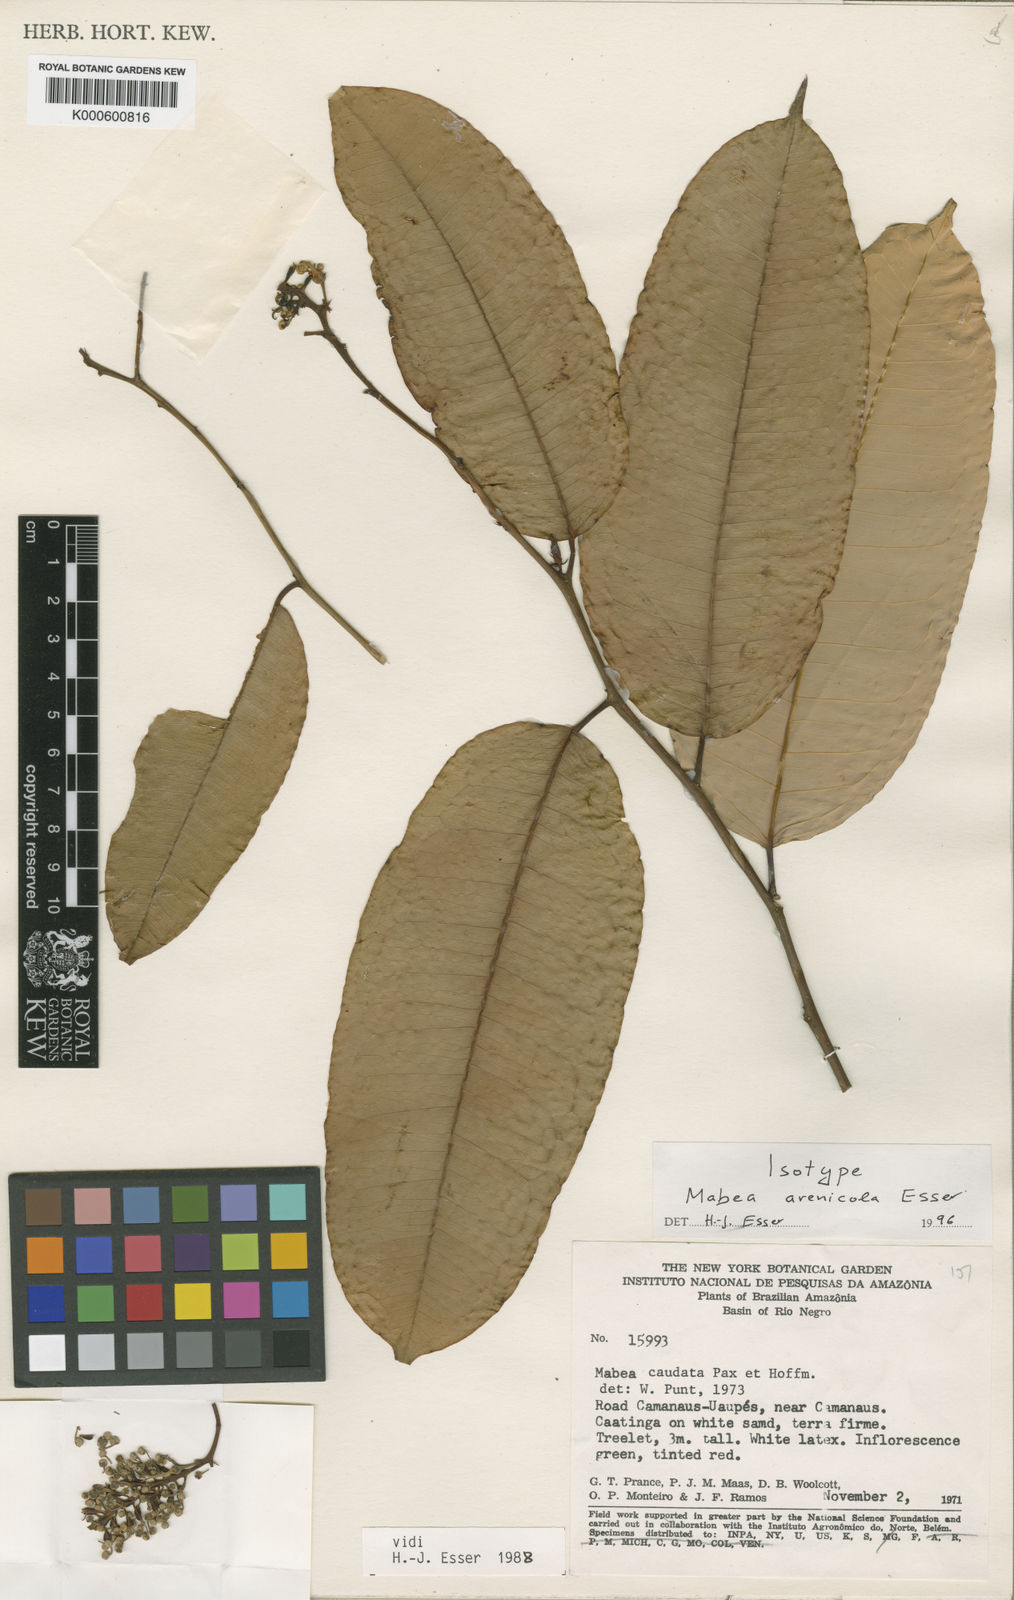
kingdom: Plantae
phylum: Tracheophyta
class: Magnoliopsida
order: Malpighiales
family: Euphorbiaceae
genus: Mabea
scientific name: Mabea arenicola
